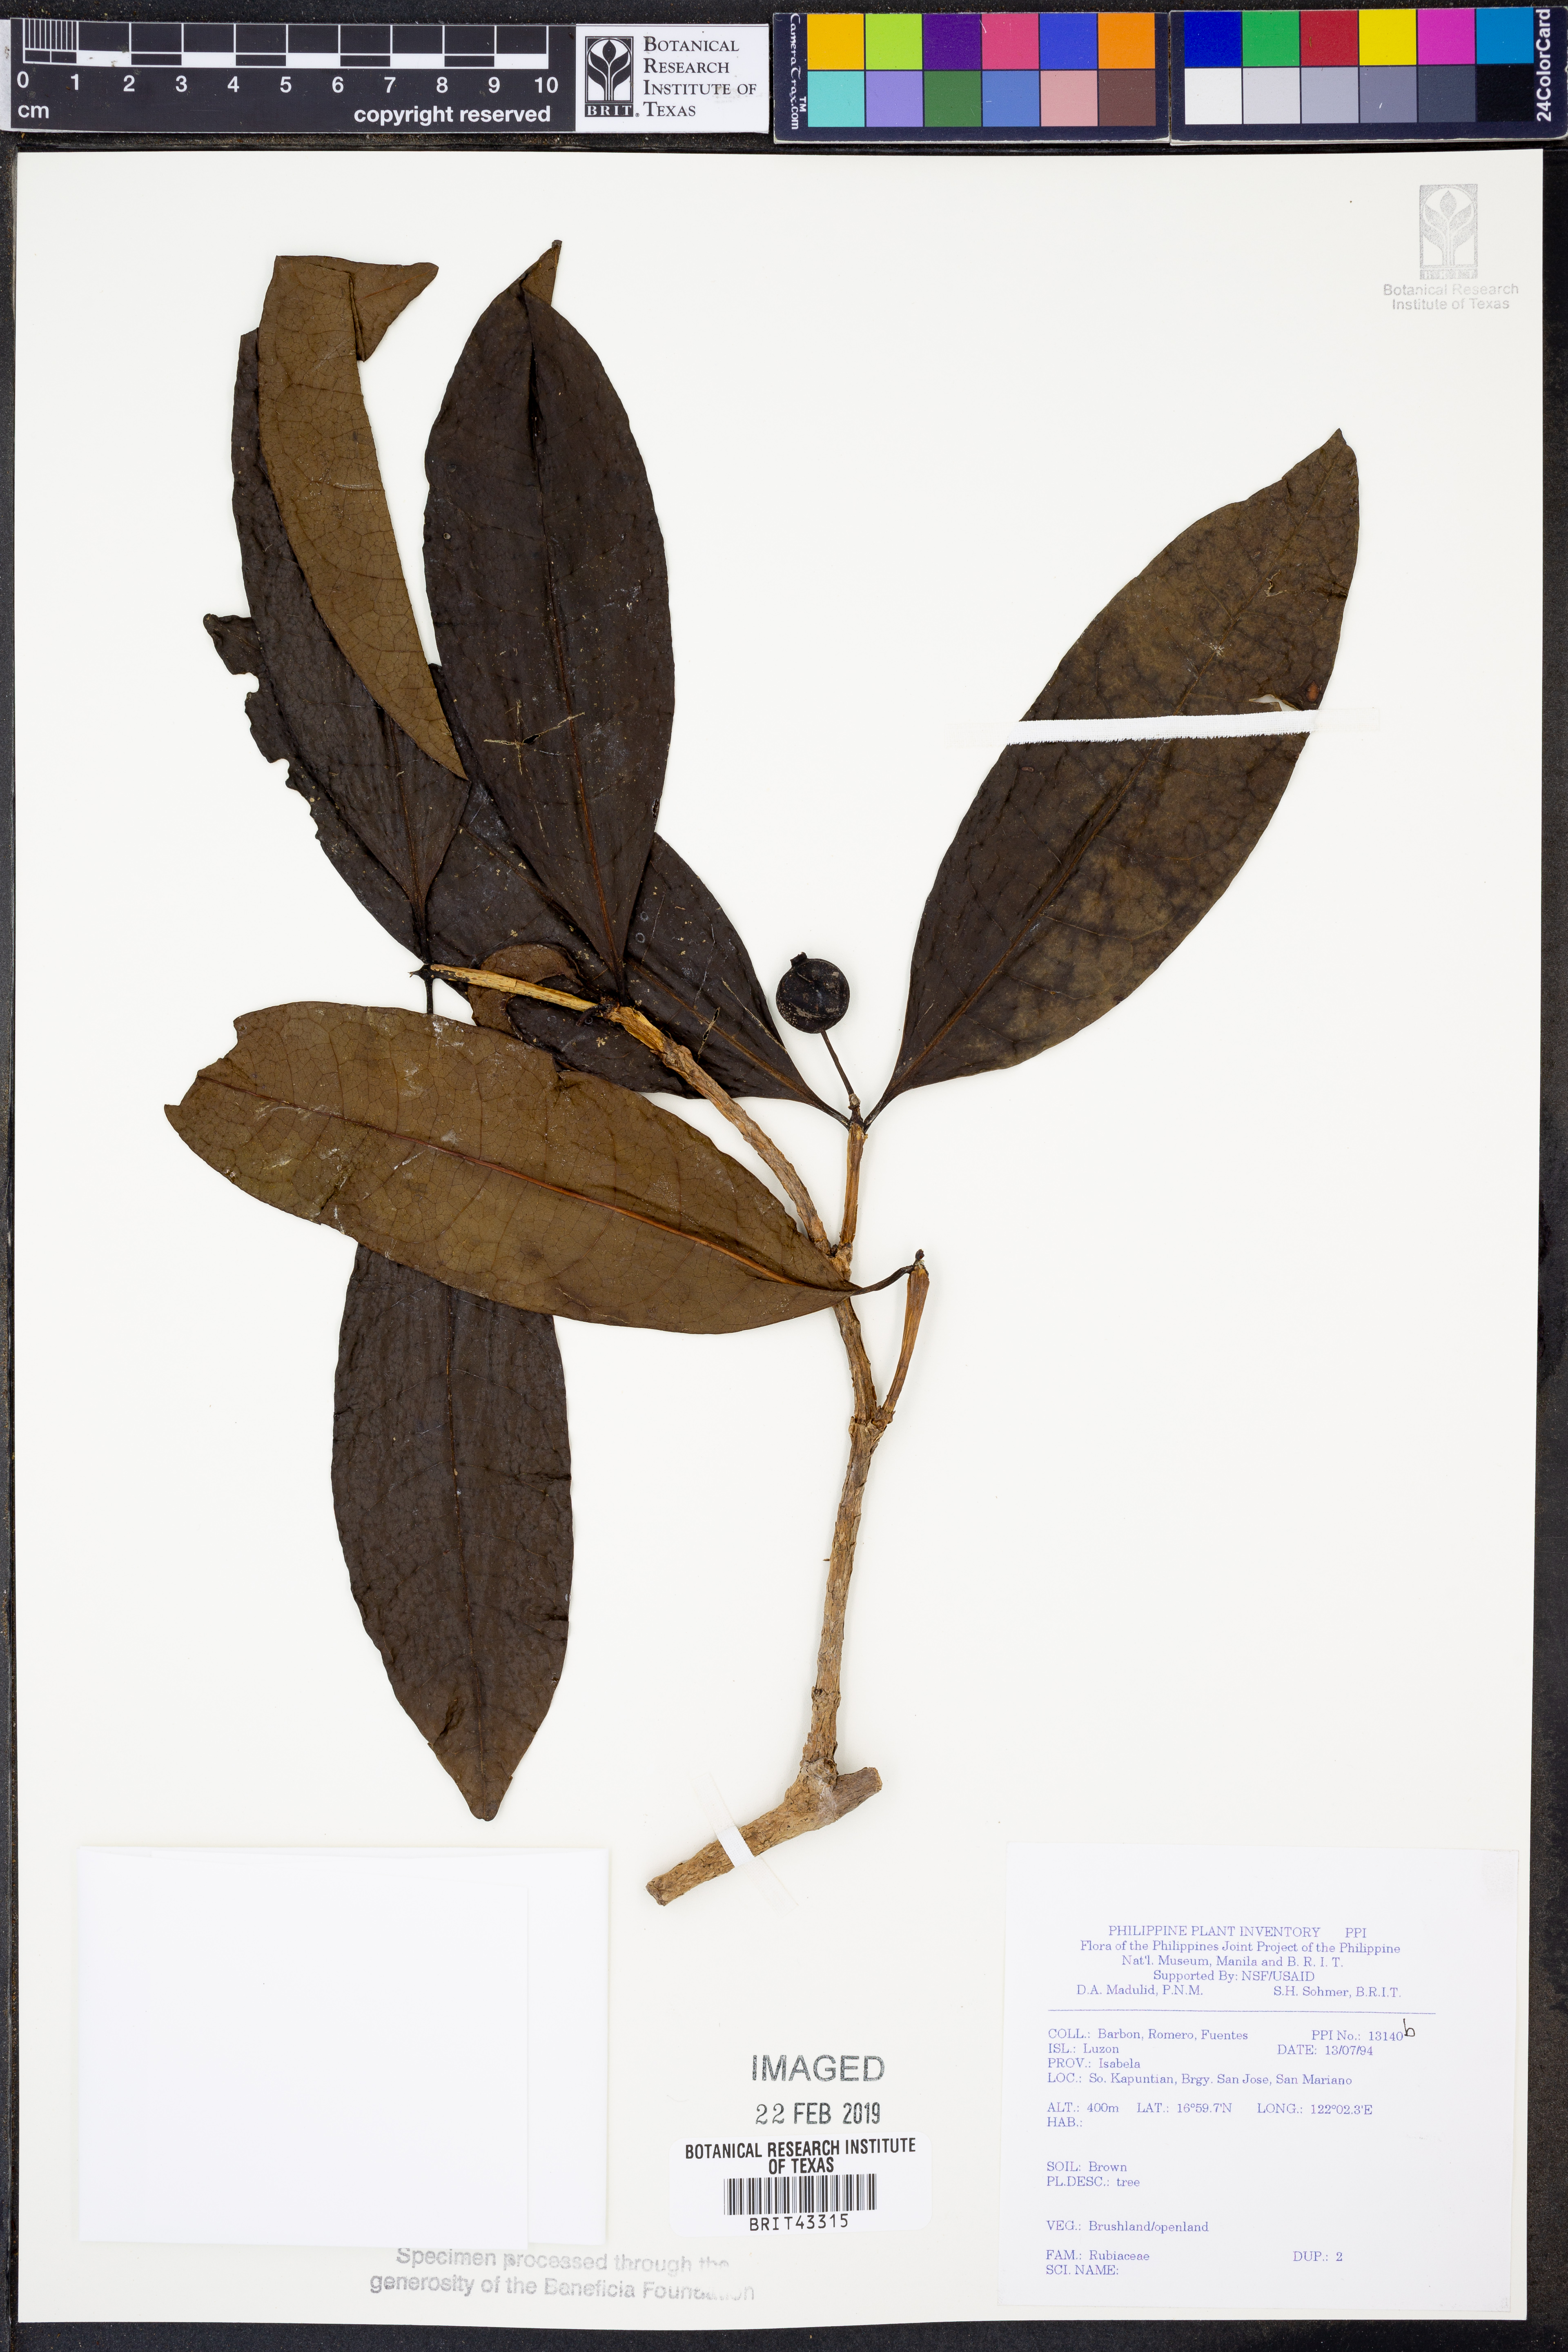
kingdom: Plantae
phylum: Tracheophyta
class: Magnoliopsida
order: Gentianales
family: Rubiaceae
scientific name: Rubiaceae
